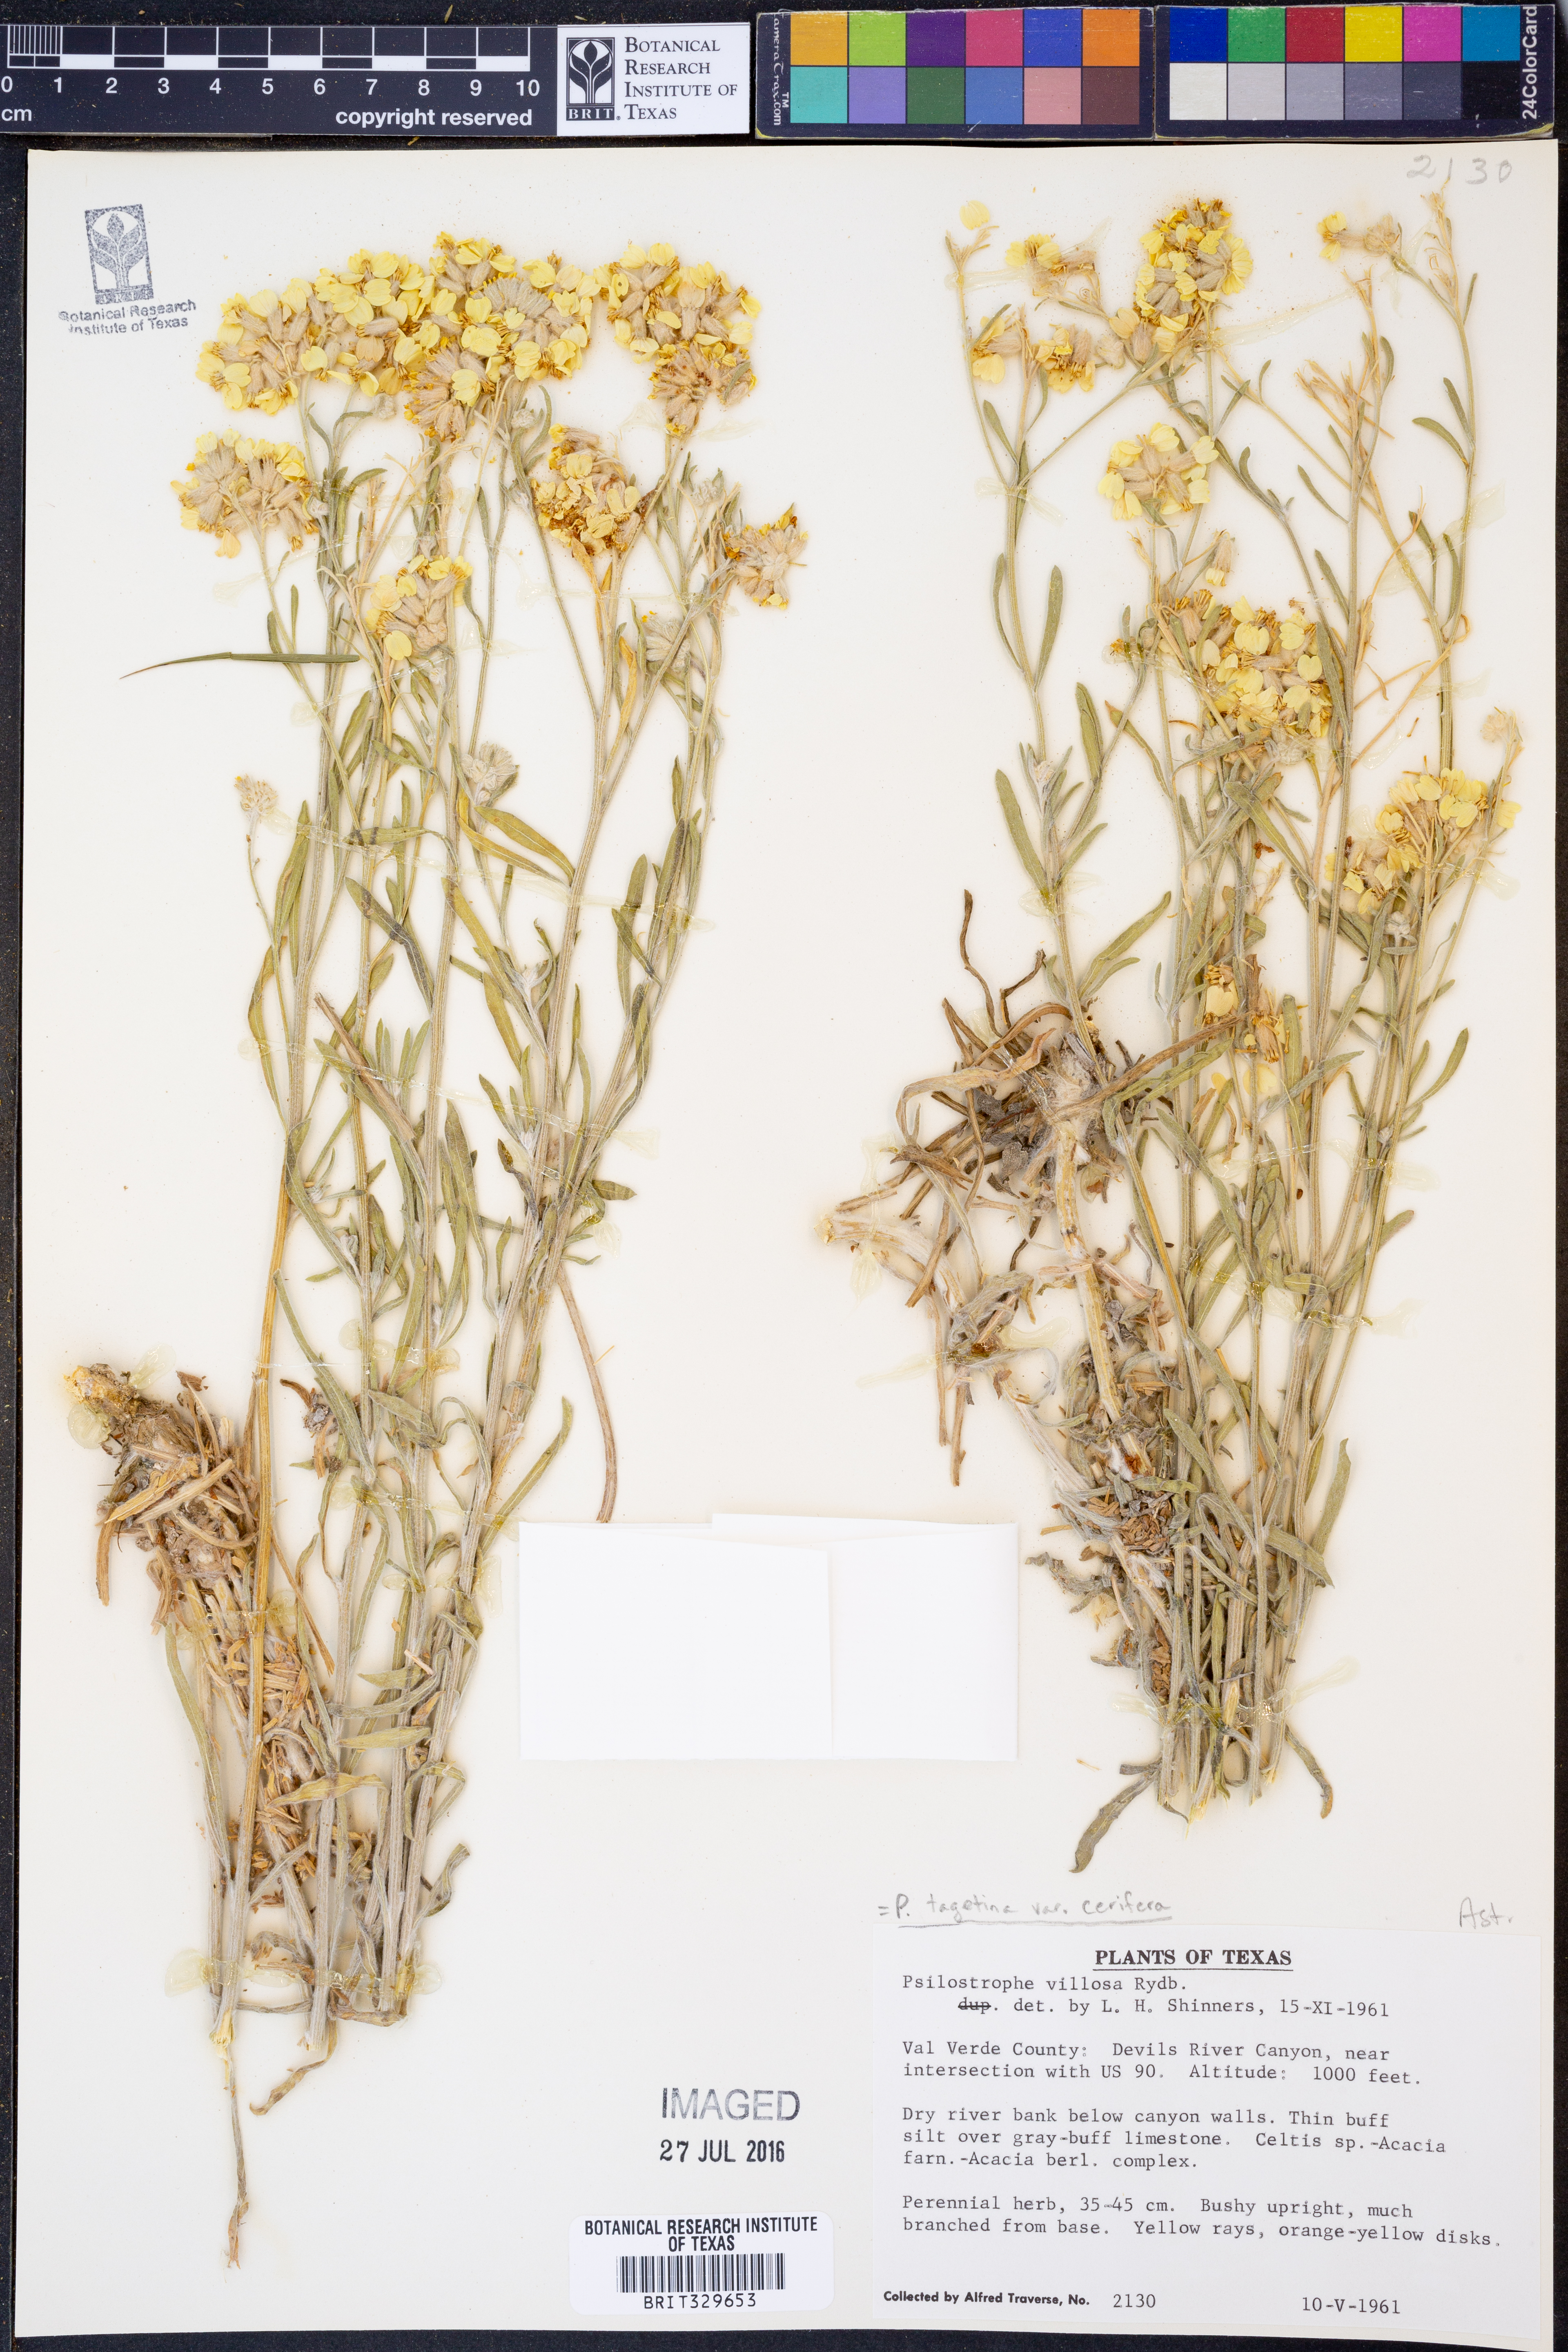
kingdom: Plantae
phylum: Tracheophyta
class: Magnoliopsida
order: Asterales
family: Asteraceae
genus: Psilostrophe
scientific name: Psilostrophe villosa
